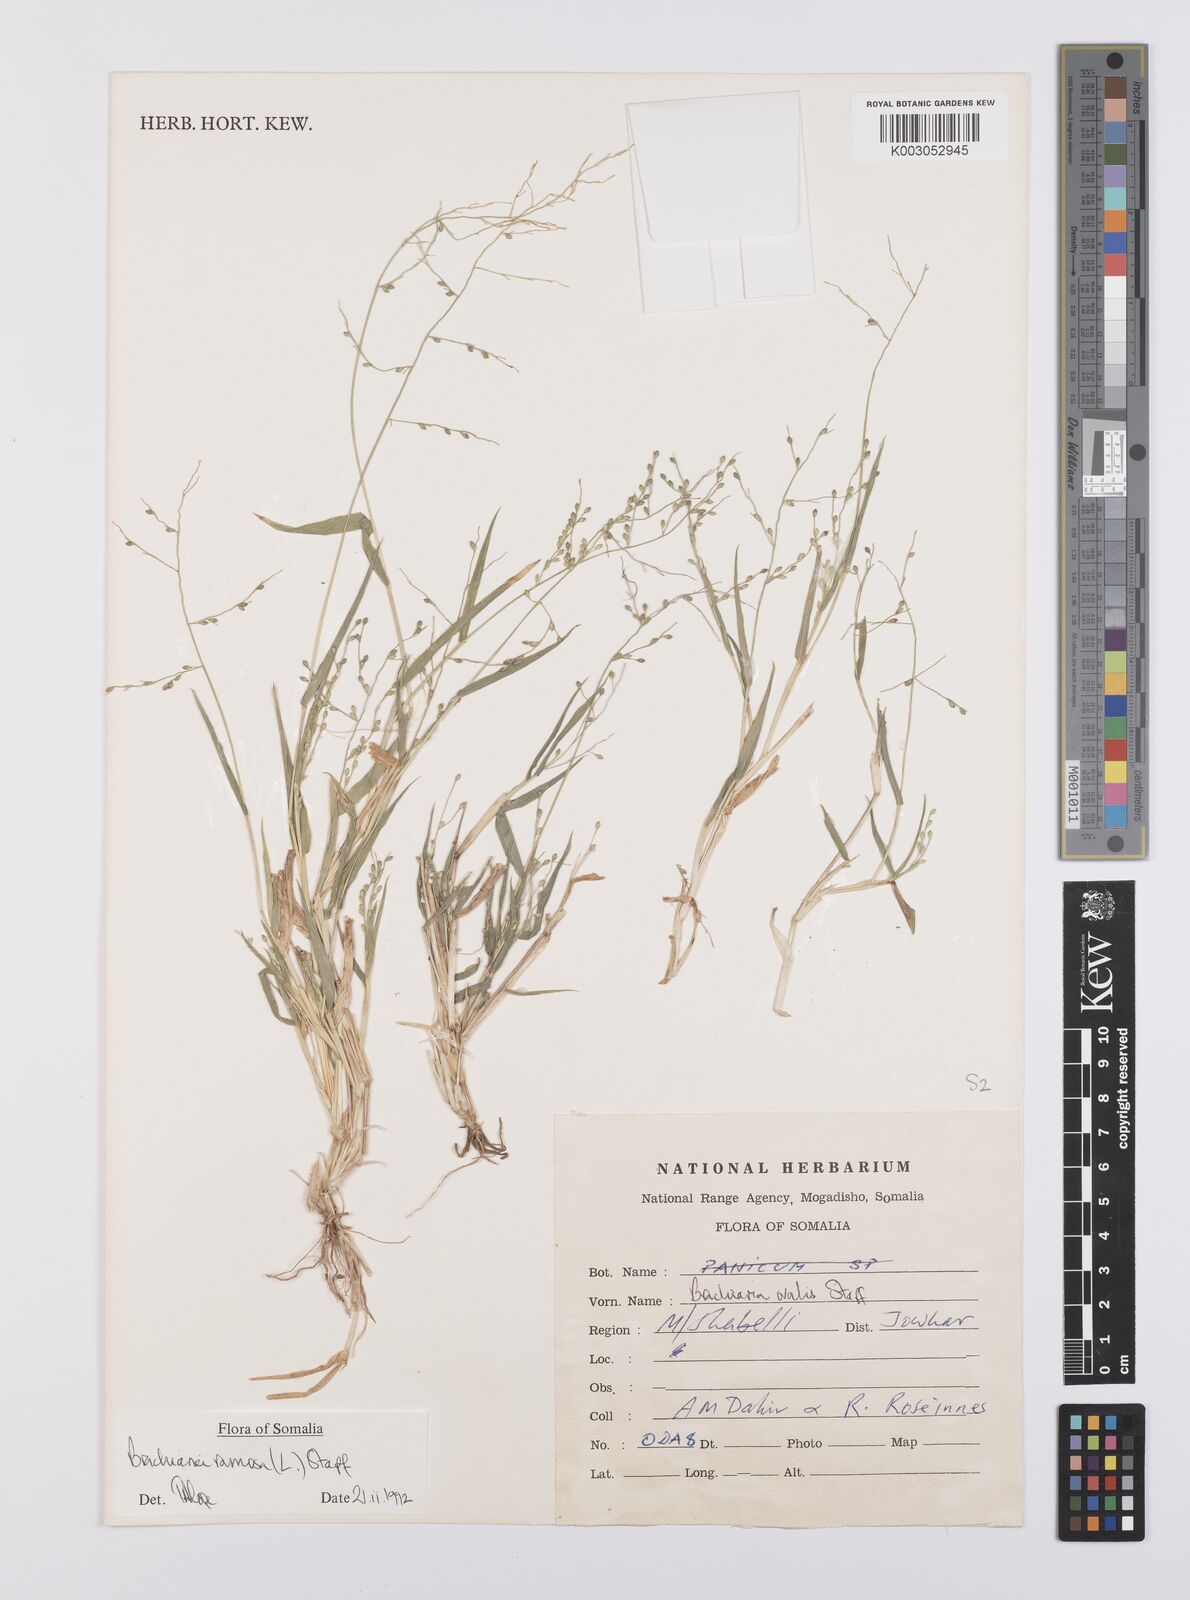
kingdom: Plantae
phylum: Tracheophyta
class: Liliopsida
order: Poales
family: Poaceae
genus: Urochloa
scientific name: Urochloa ramosa
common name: Browntop millet
